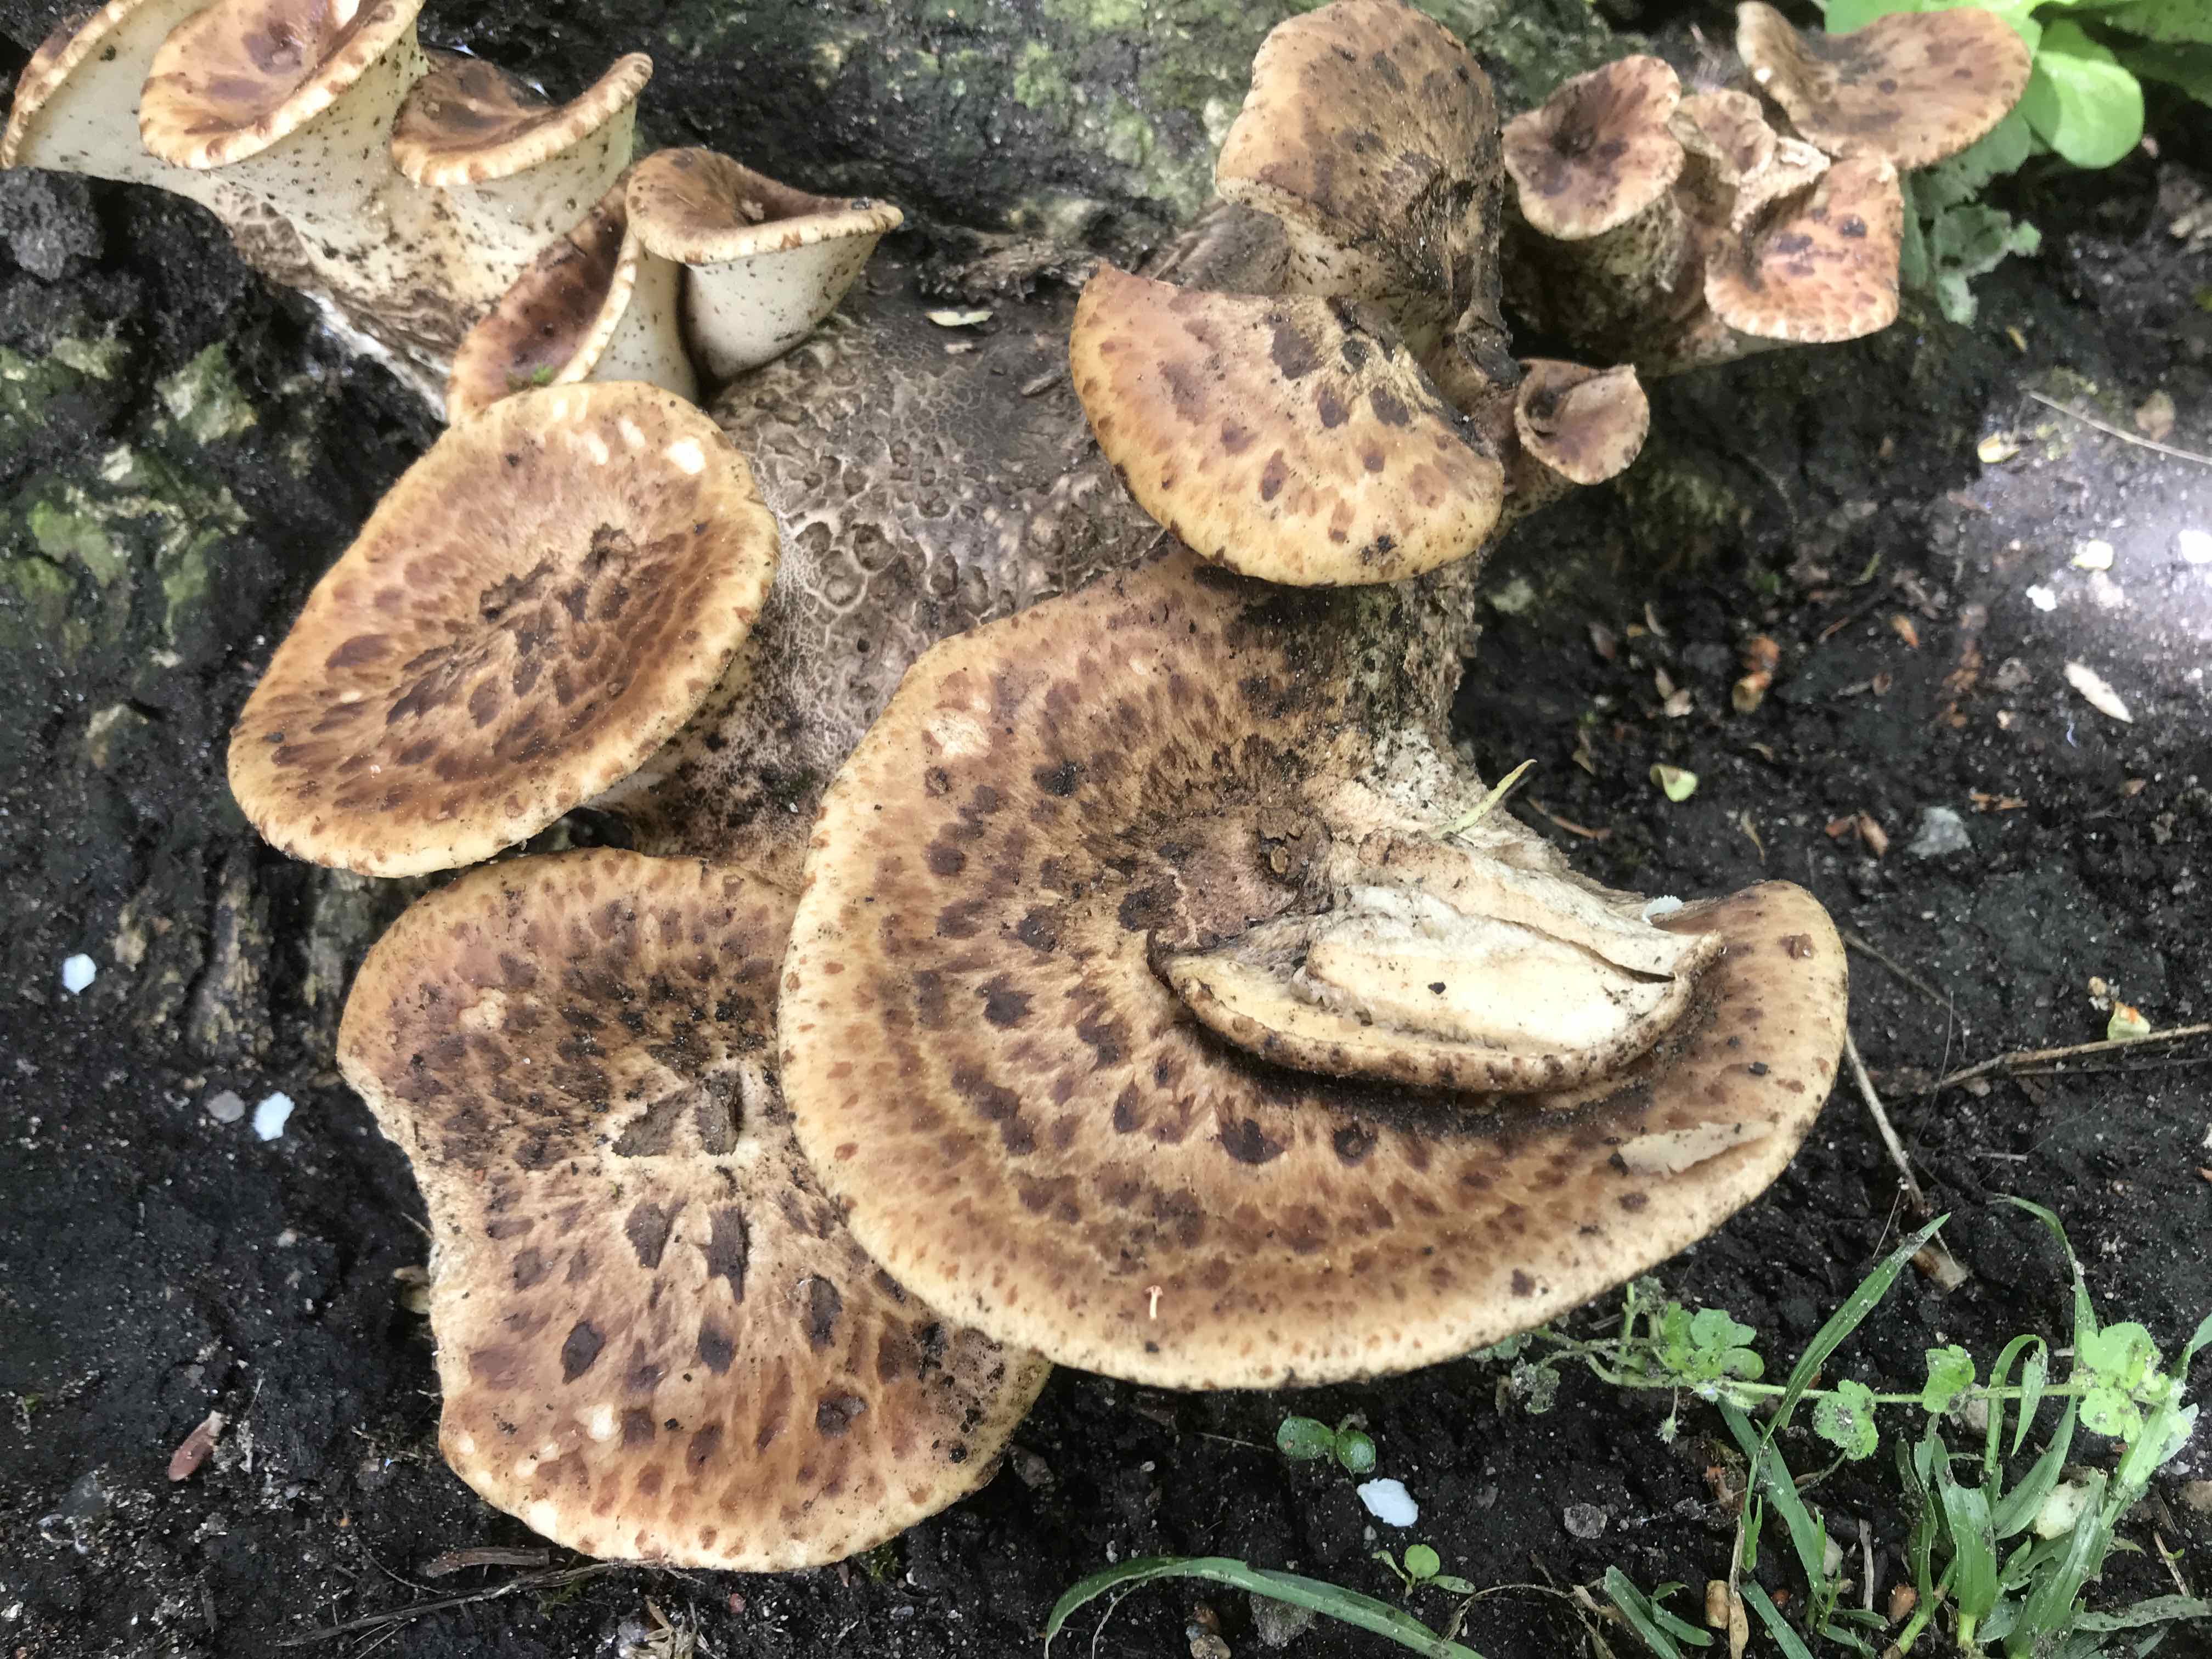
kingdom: Fungi
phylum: Basidiomycota
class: Agaricomycetes
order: Polyporales
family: Polyporaceae
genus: Cerioporus
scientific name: Cerioporus squamosus
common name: skællet stilkporesvamp
